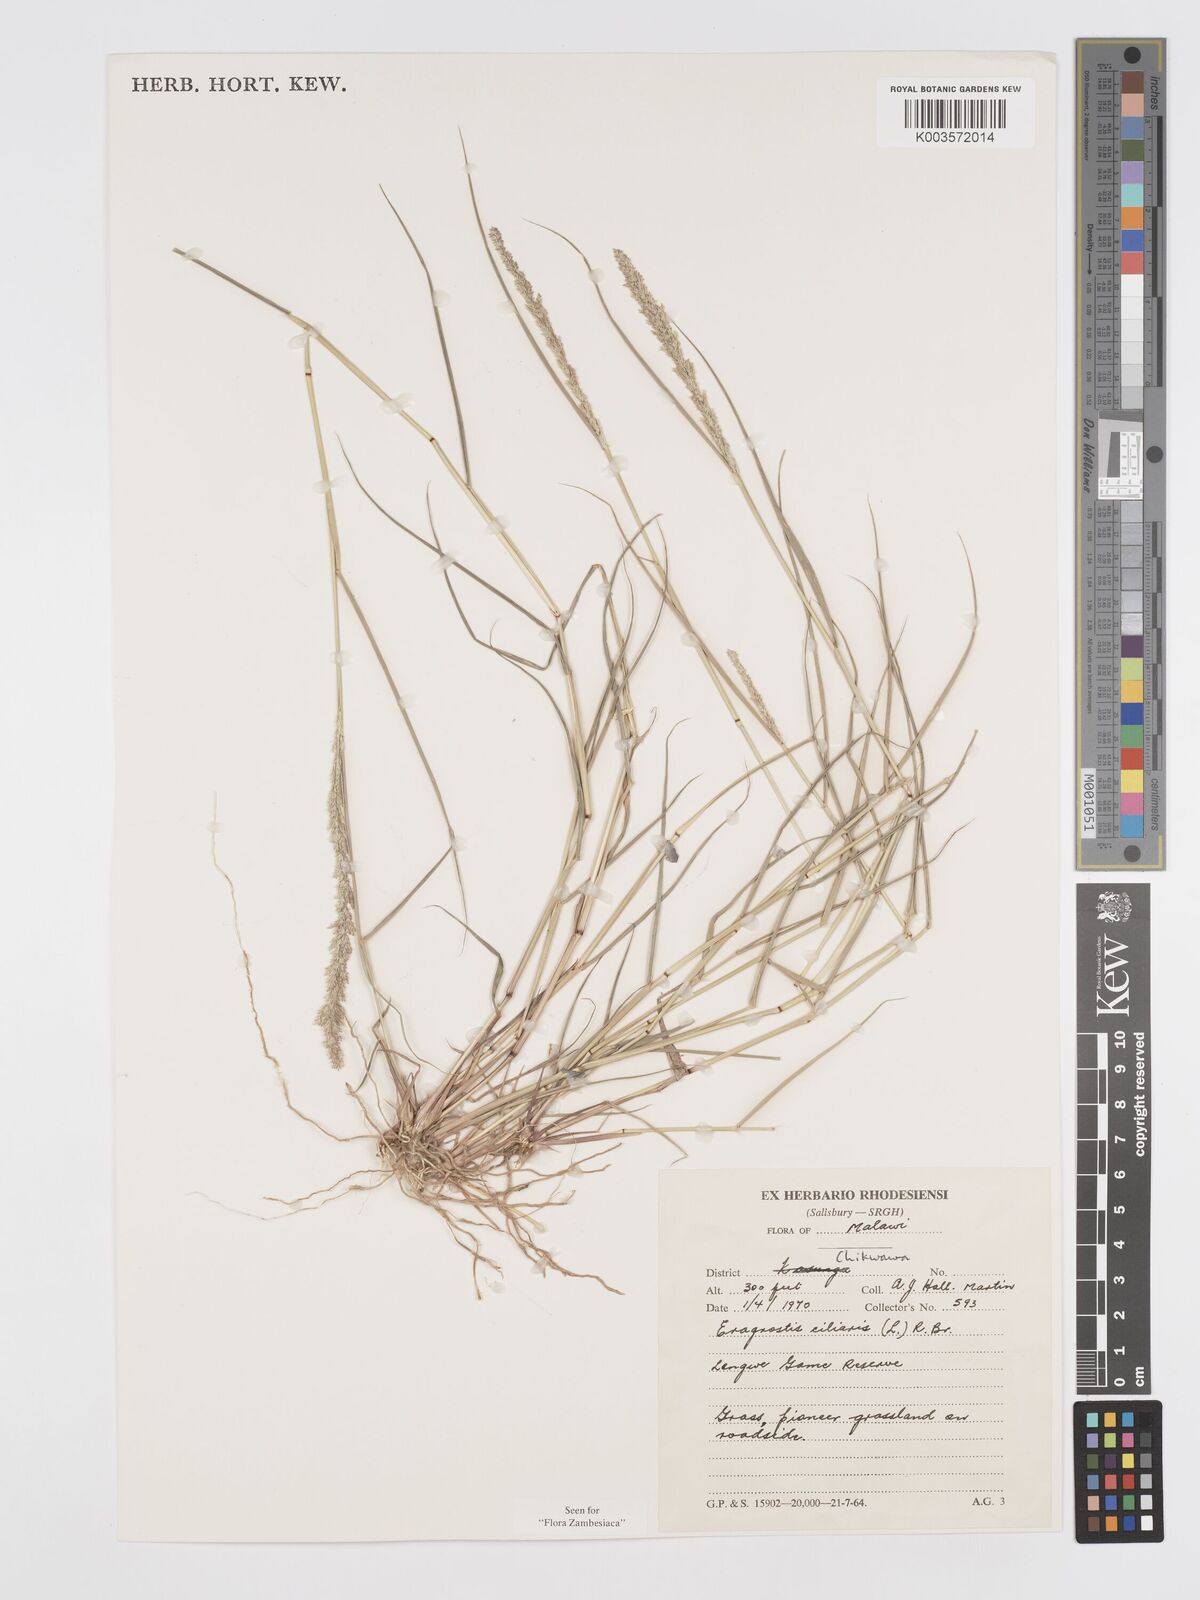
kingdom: Plantae
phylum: Tracheophyta
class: Liliopsida
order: Poales
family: Poaceae
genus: Eragrostis
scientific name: Eragrostis ciliaris
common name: Gophertail lovegrass
